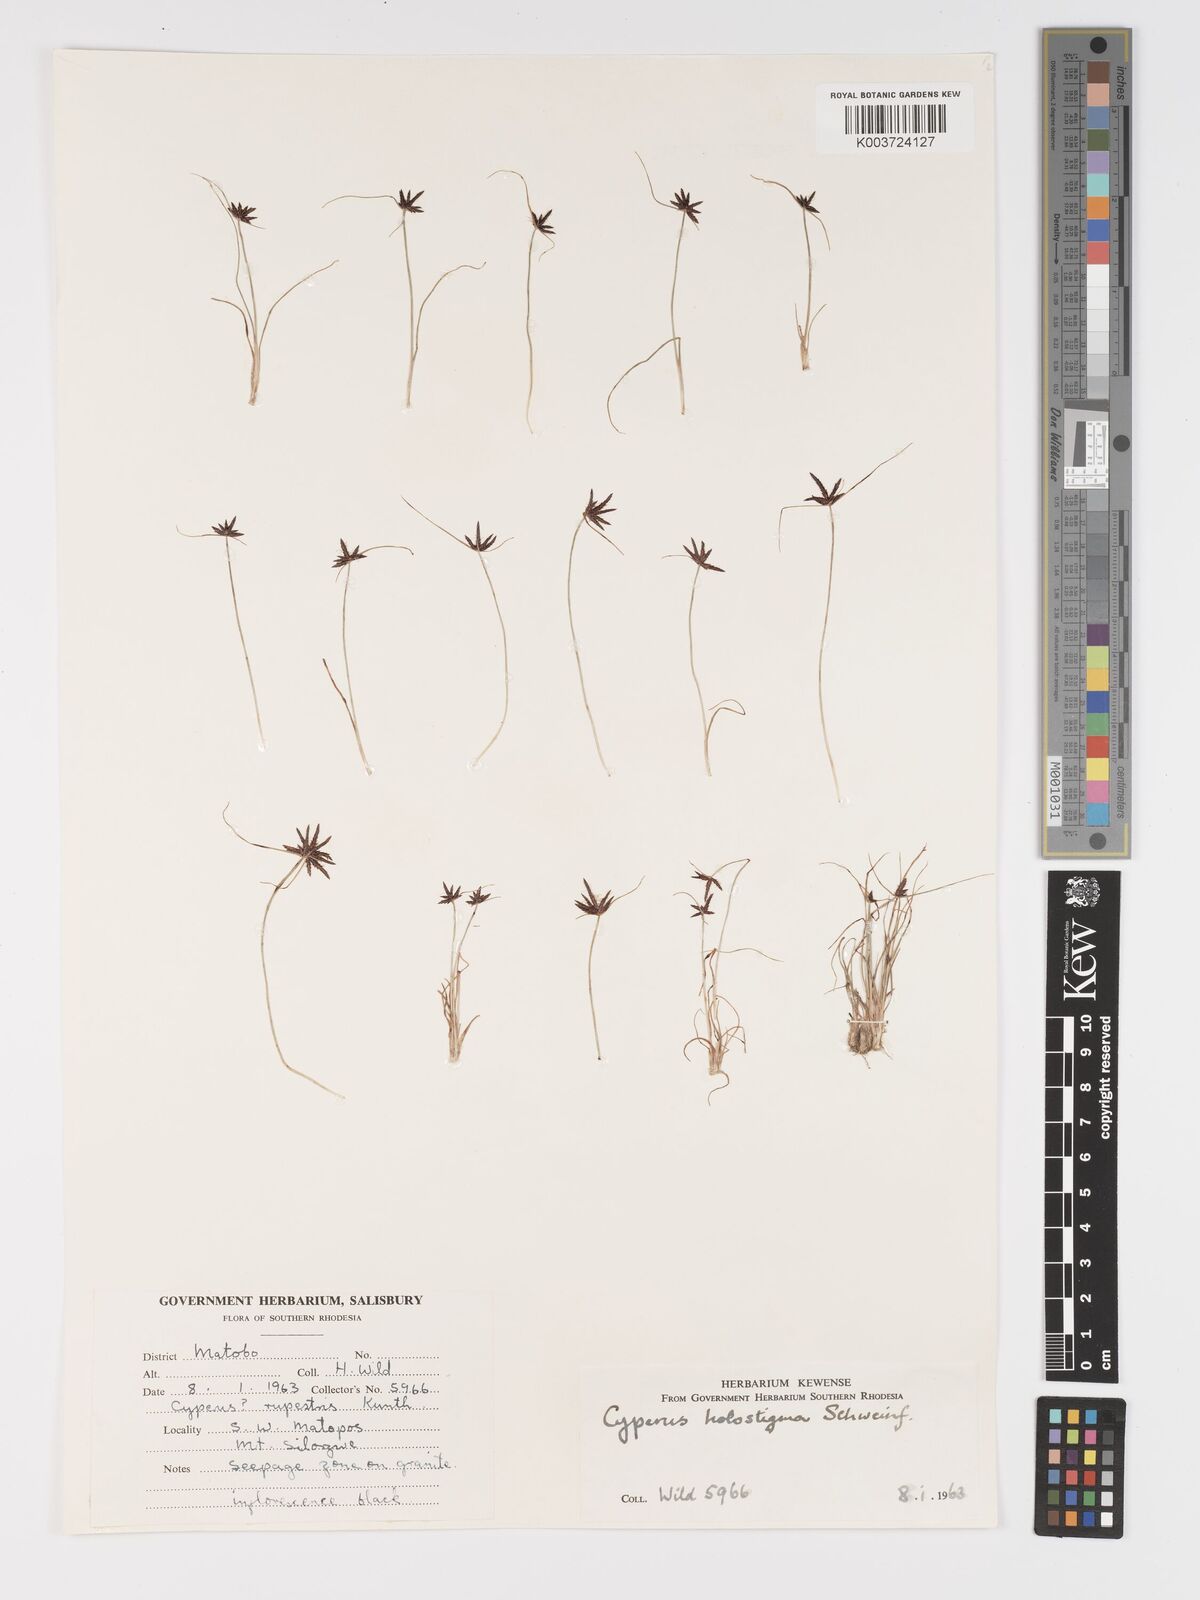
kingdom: Plantae
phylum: Tracheophyta
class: Liliopsida
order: Poales
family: Cyperaceae
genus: Cyperus
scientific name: Cyperus holostigma
